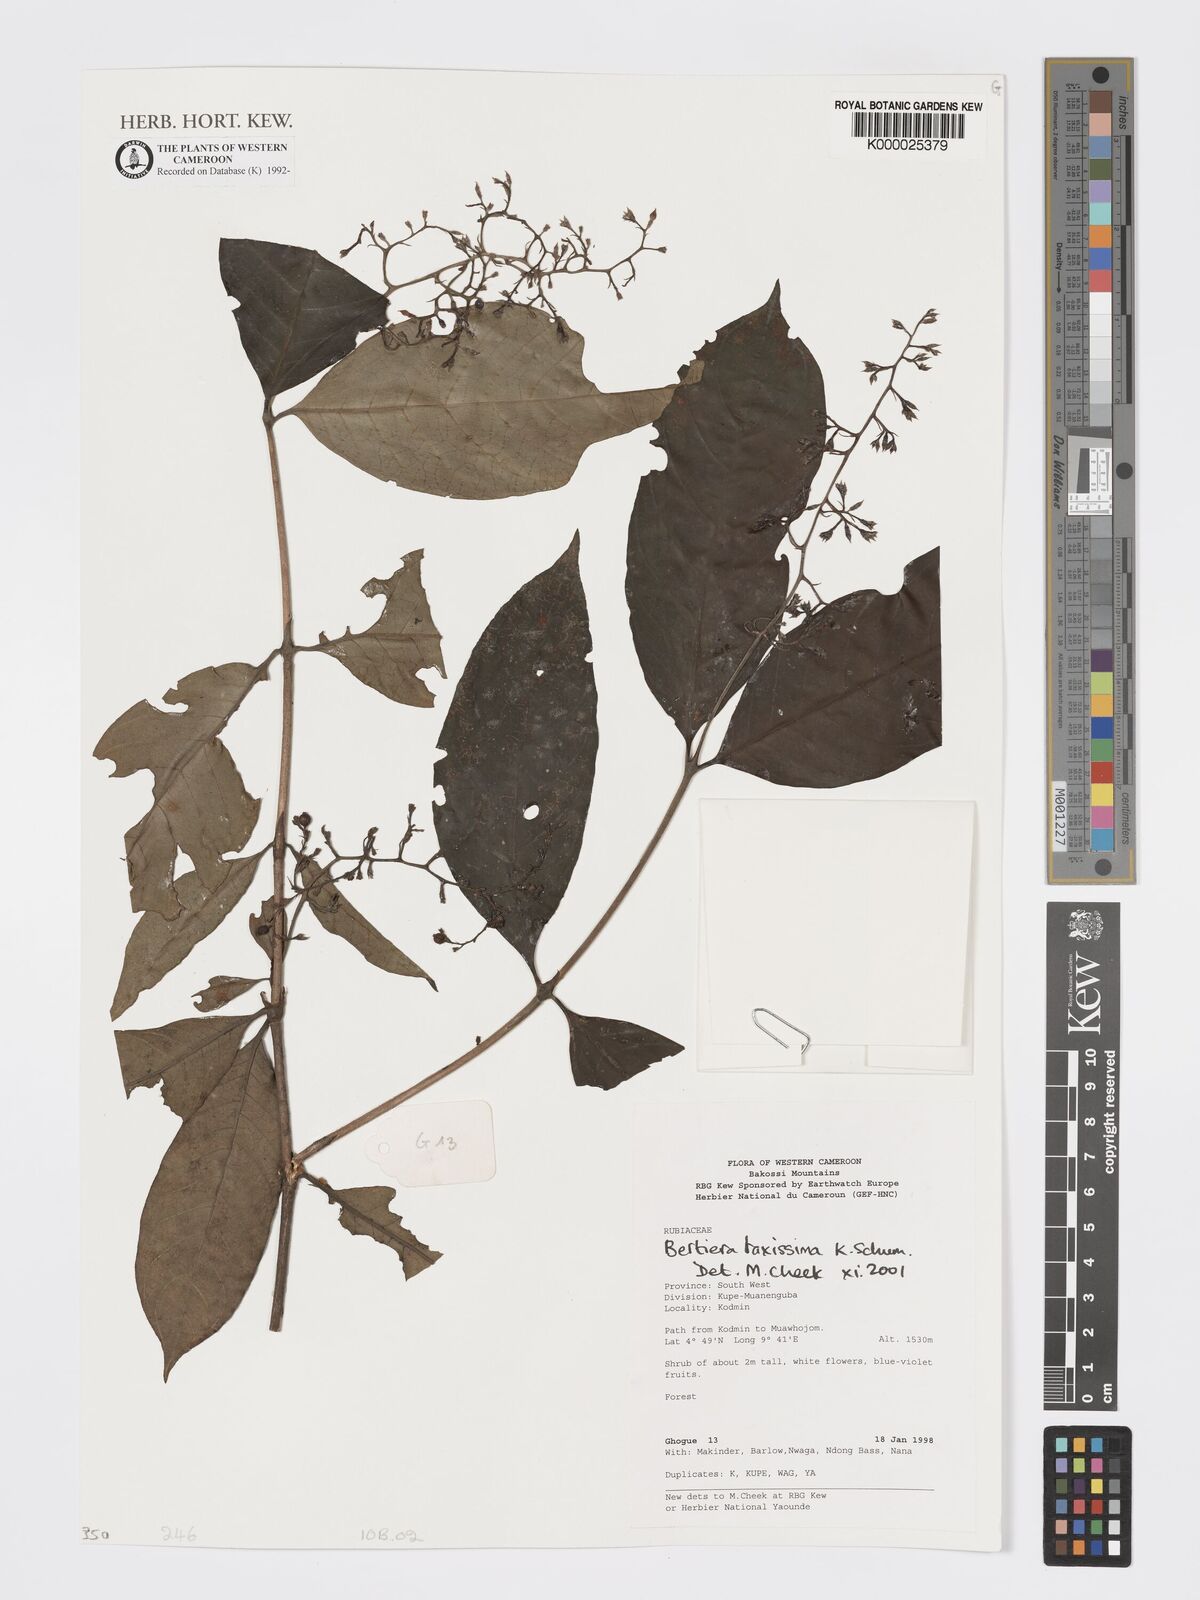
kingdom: Plantae
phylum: Tracheophyta
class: Magnoliopsida
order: Gentianales
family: Rubiaceae
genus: Bertiera
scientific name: Bertiera laxissima
